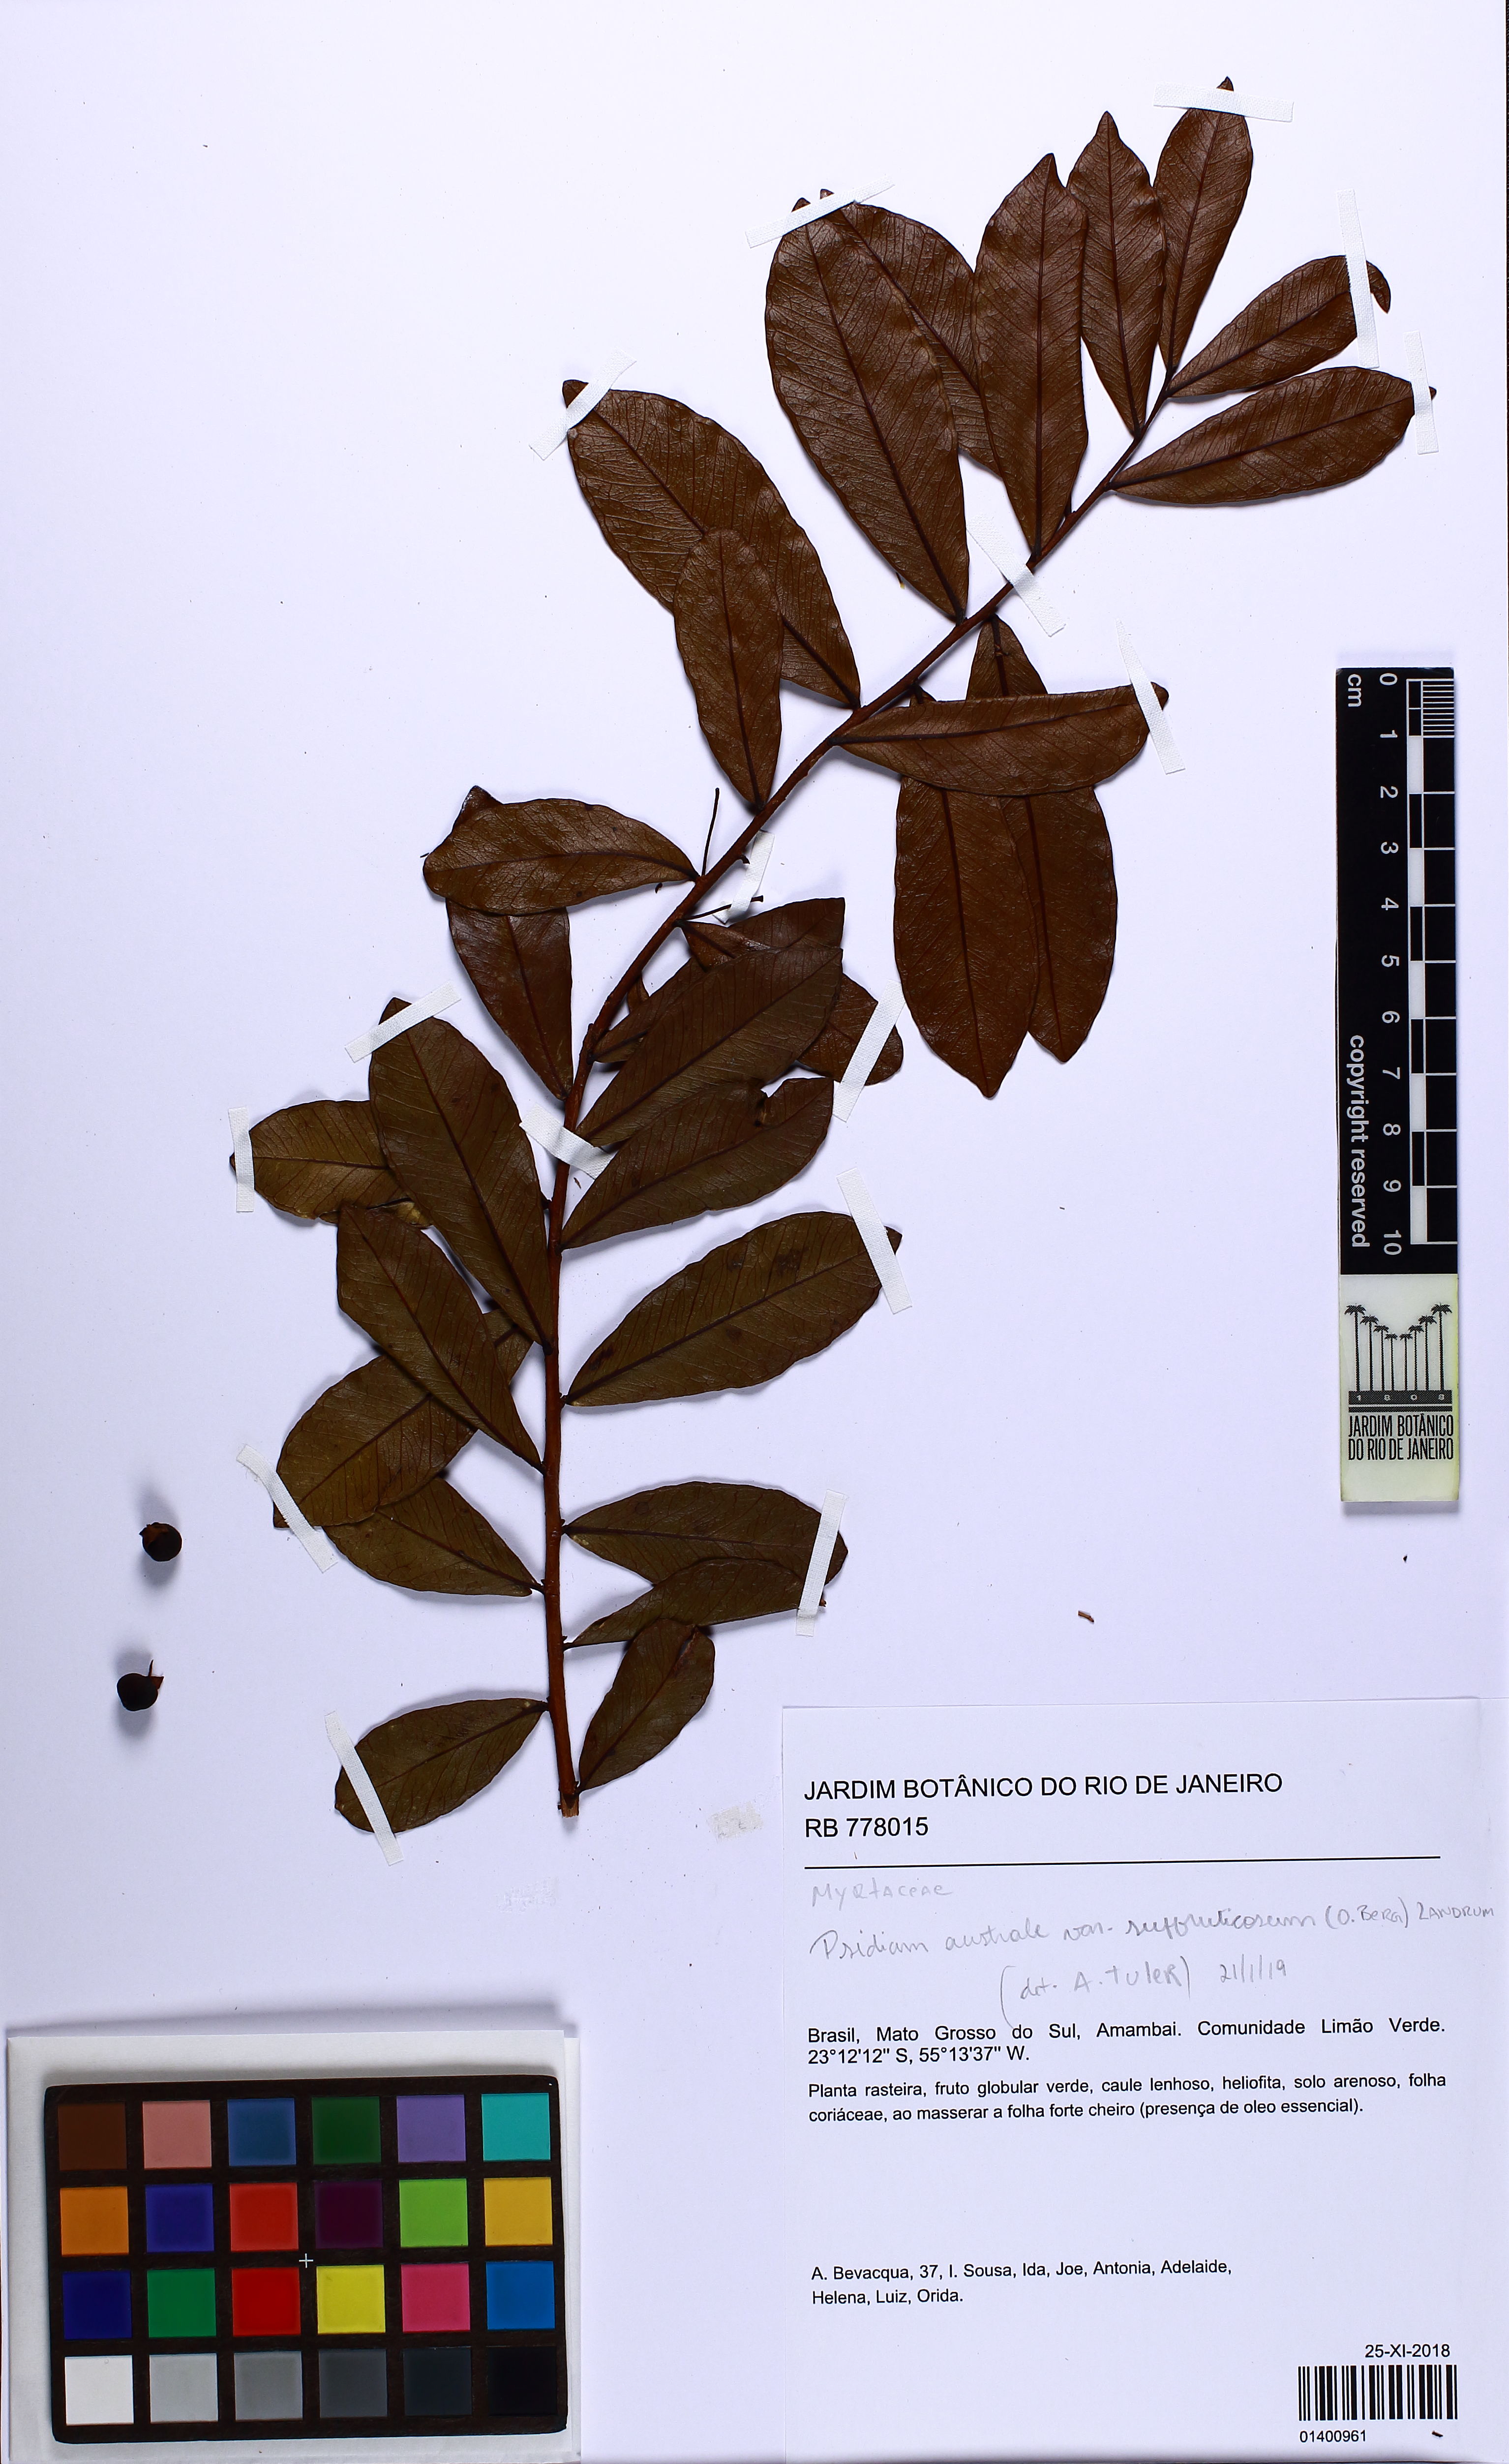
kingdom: Plantae
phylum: Tracheophyta
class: Magnoliopsida
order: Myrtales
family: Myrtaceae
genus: Psidium
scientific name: Psidium australe
